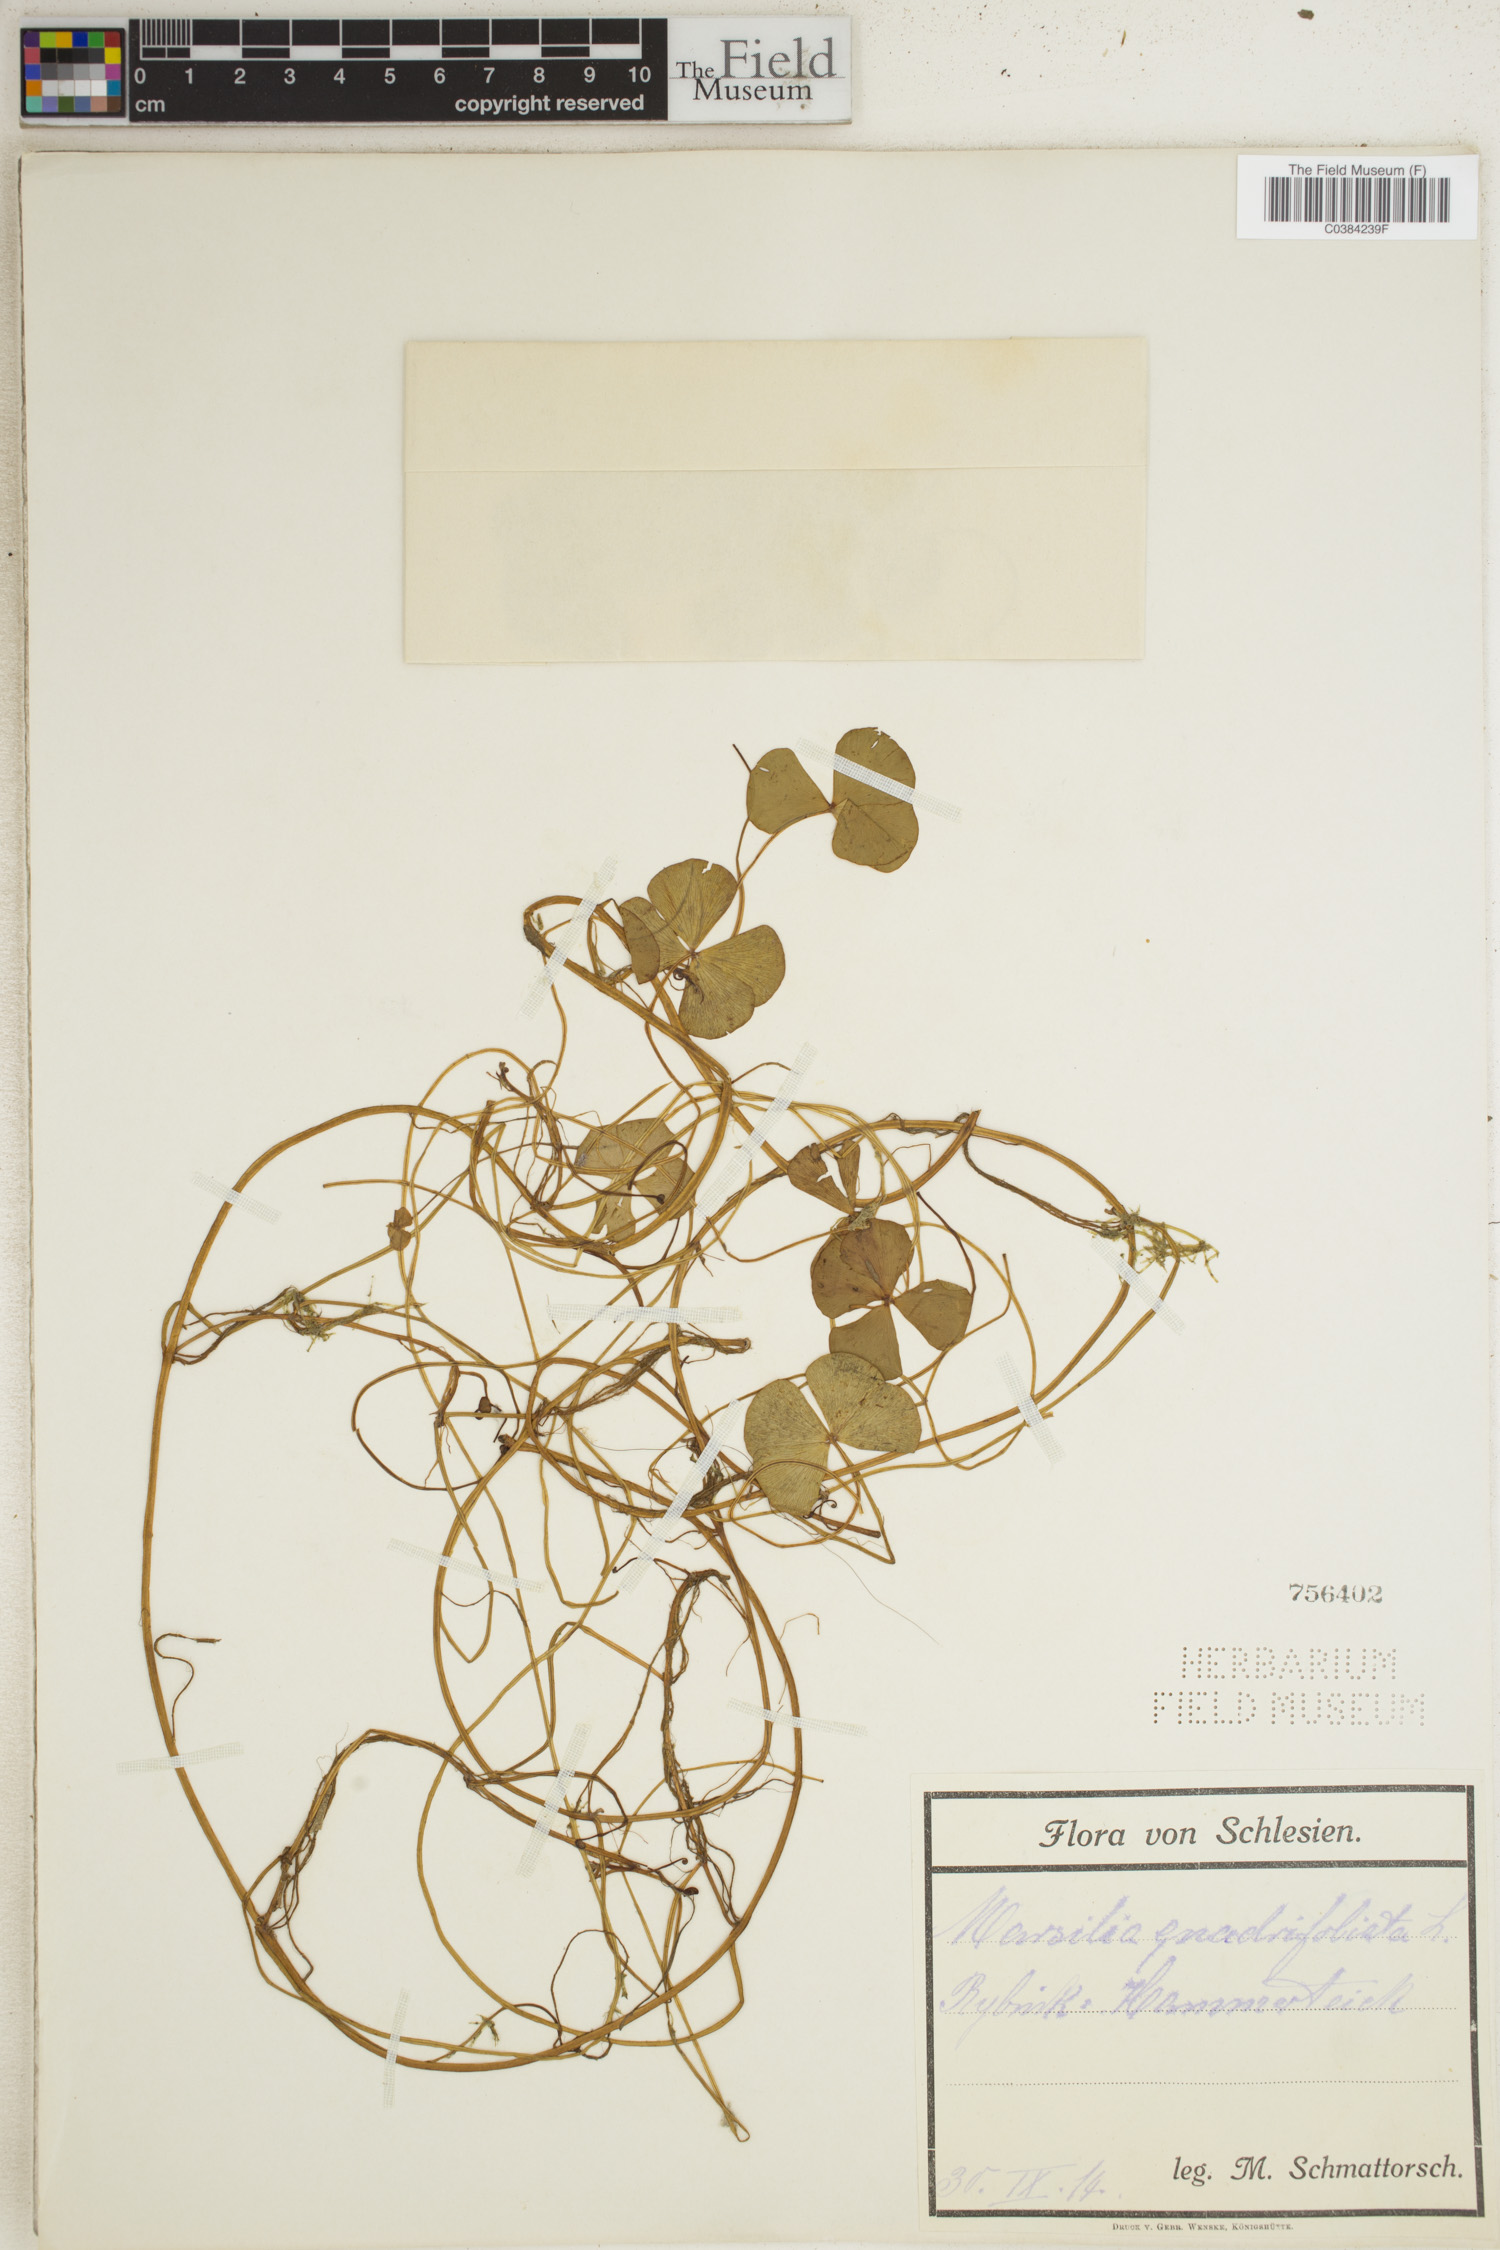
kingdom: Plantae
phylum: Tracheophyta
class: Polypodiopsida
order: Salviniales
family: Marsileaceae
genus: Marsilea
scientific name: Marsilea quadrifolia
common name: Water shamrock
